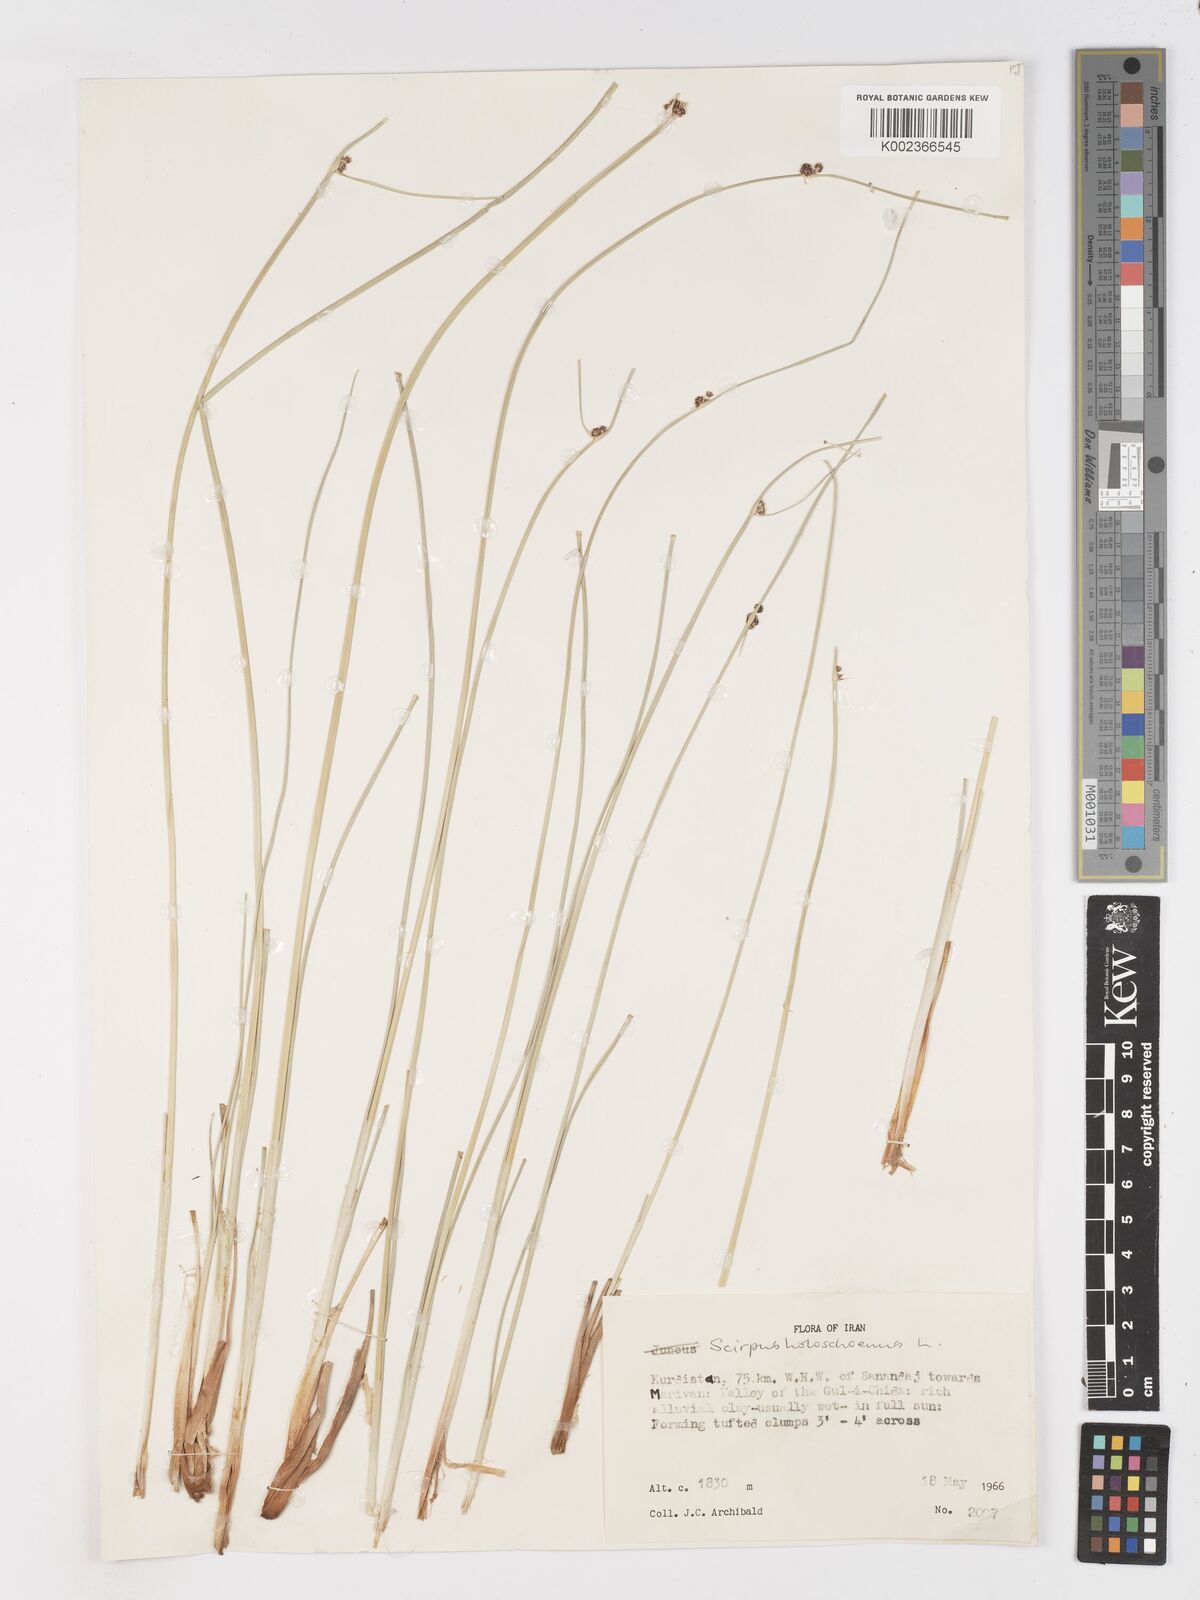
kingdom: Plantae
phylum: Tracheophyta
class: Liliopsida
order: Poales
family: Cyperaceae
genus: Scirpoides
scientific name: Scirpoides holoschoenus
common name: Round-headed club-rush
